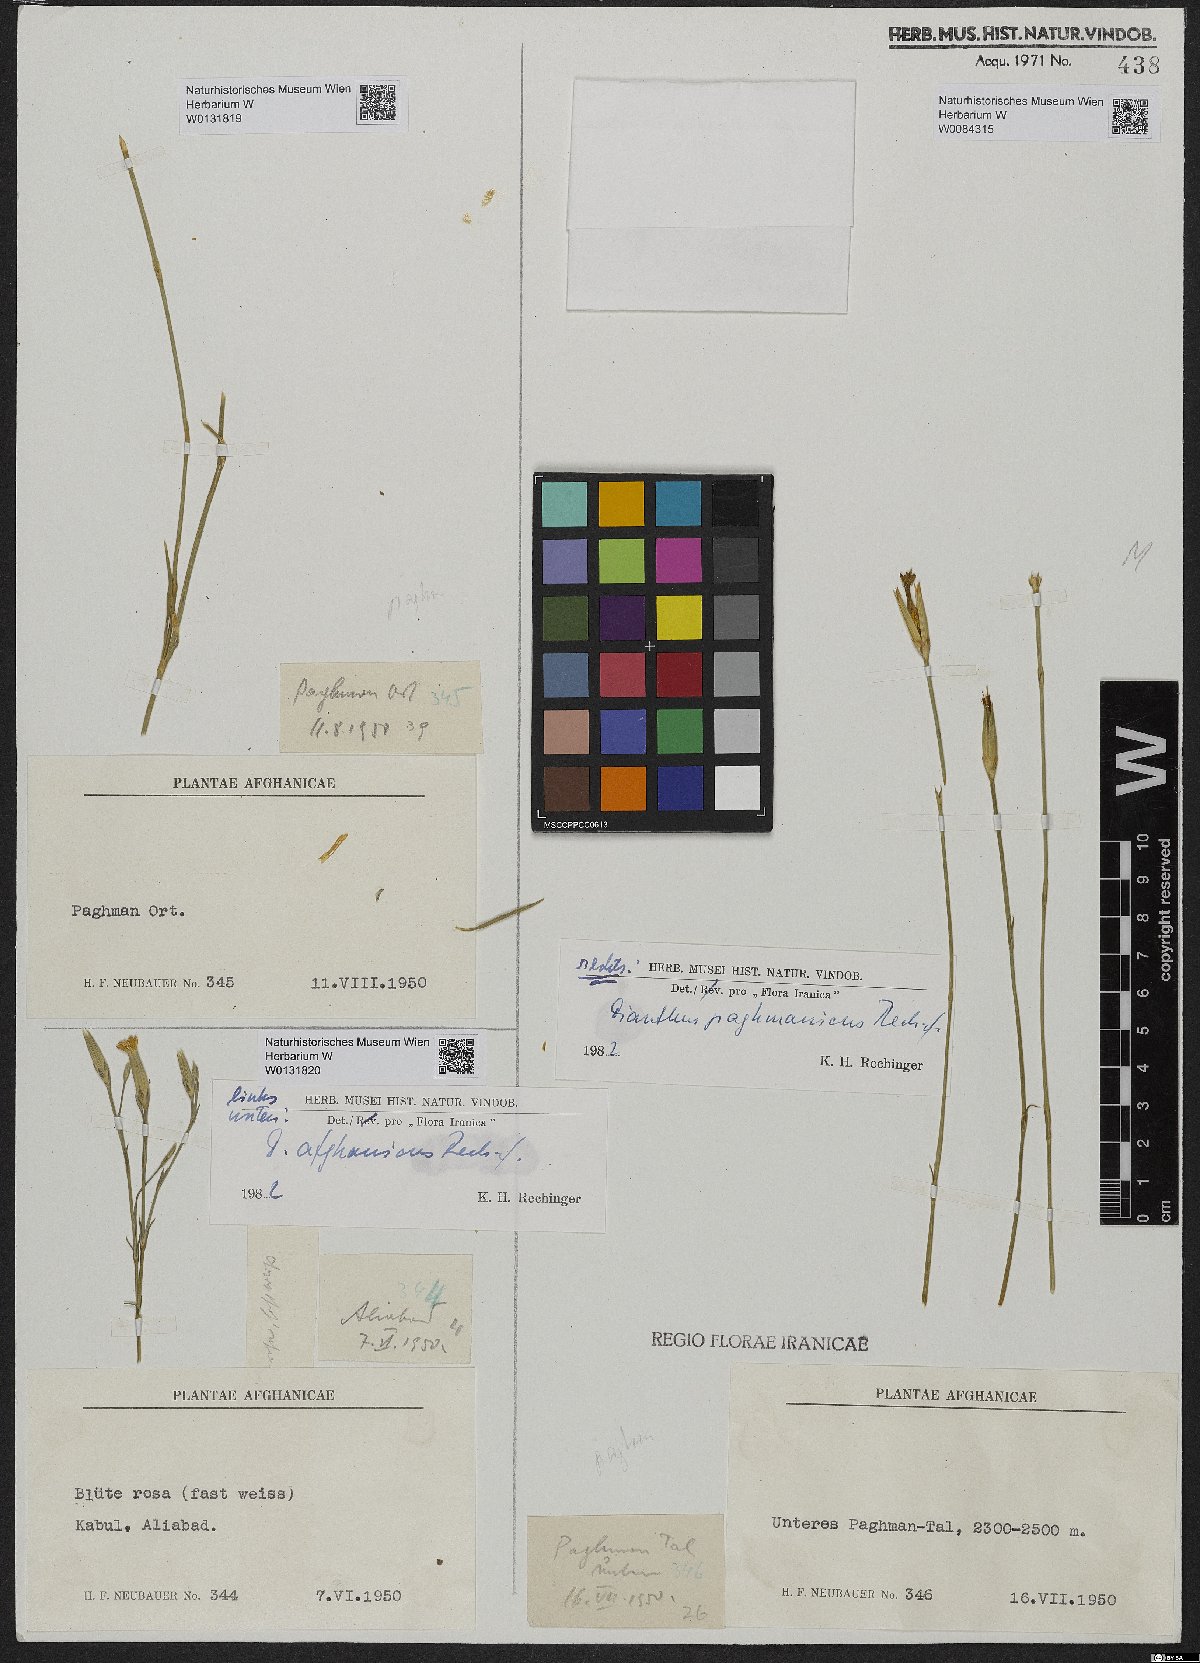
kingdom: Plantae
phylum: Tracheophyta
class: Magnoliopsida
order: Caryophyllales
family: Caryophyllaceae
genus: Dianthus
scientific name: Dianthus afghanicus
